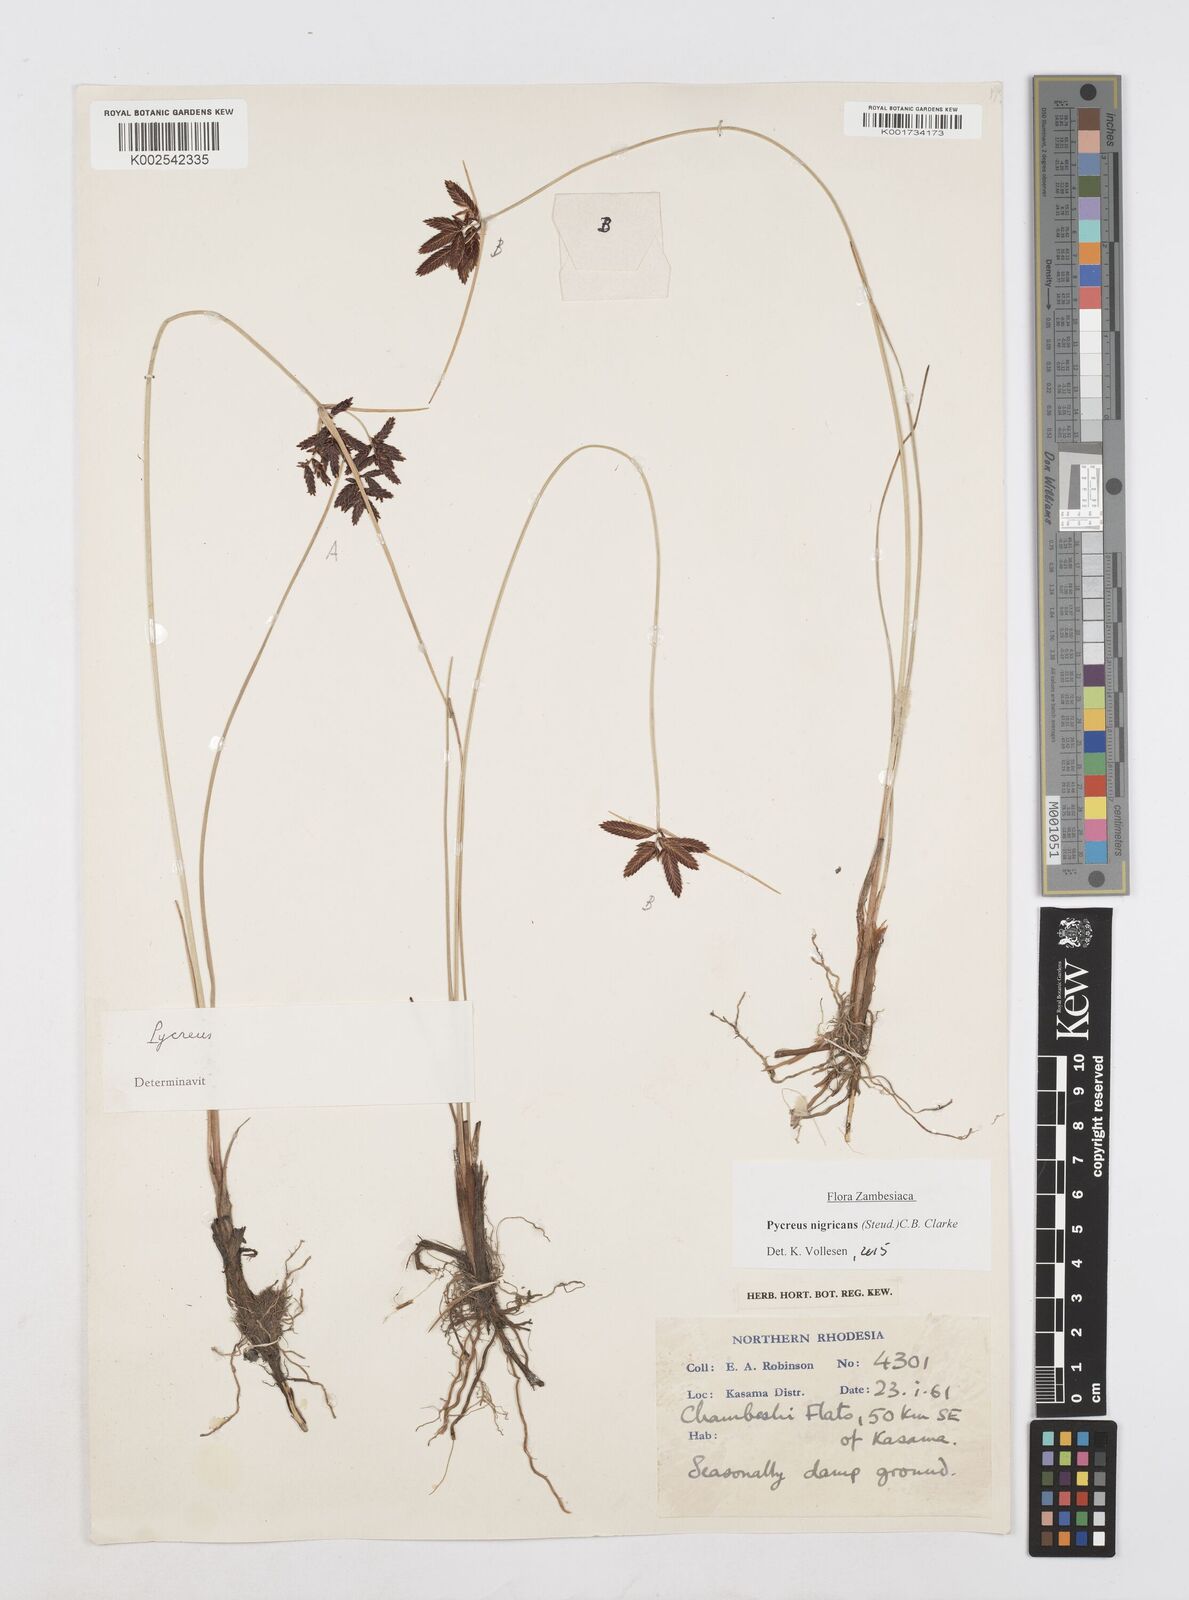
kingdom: Plantae
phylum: Tracheophyta
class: Liliopsida
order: Poales
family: Cyperaceae
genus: Cyperus
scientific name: Cyperus nigricans
